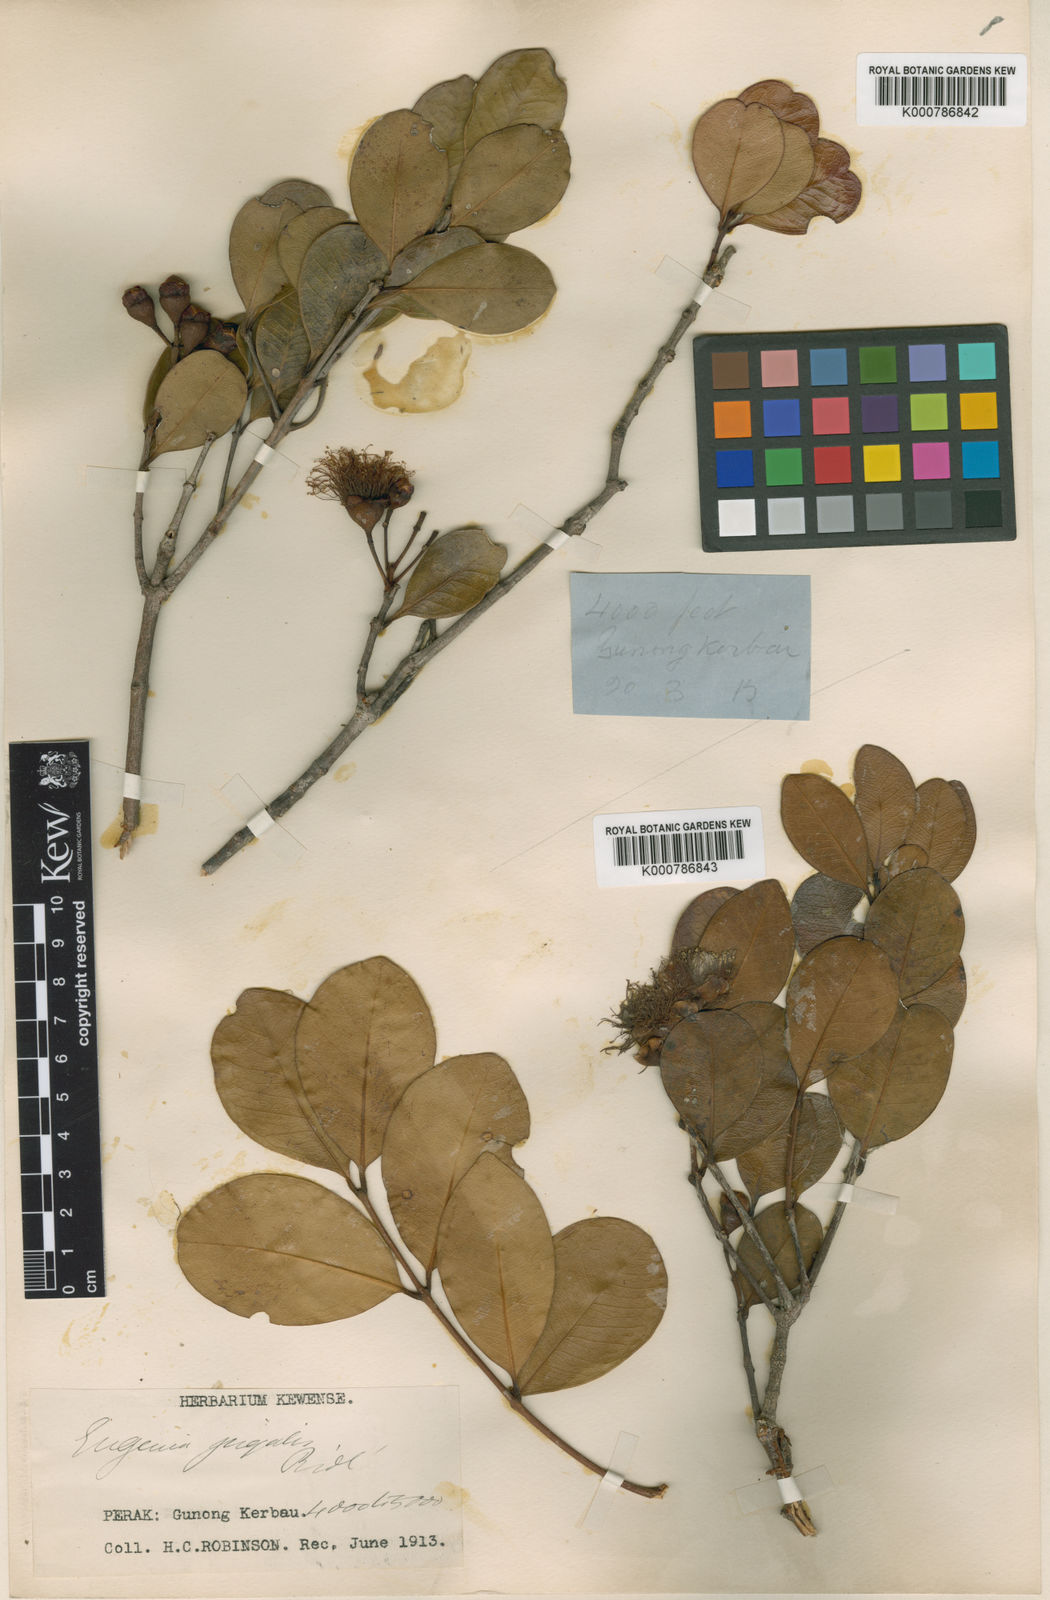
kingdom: Plantae
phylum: Tracheophyta
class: Magnoliopsida
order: Myrtales
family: Myrtaceae
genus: Syzygium
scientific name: Syzygium oreophilum
